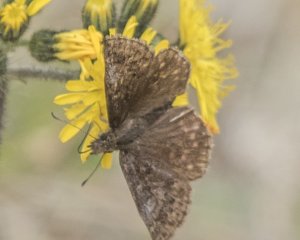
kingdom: Animalia
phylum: Arthropoda
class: Insecta
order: Lepidoptera
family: Hesperiidae
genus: Erynnis
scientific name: Erynnis icelus
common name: Dreamy Duskywing
